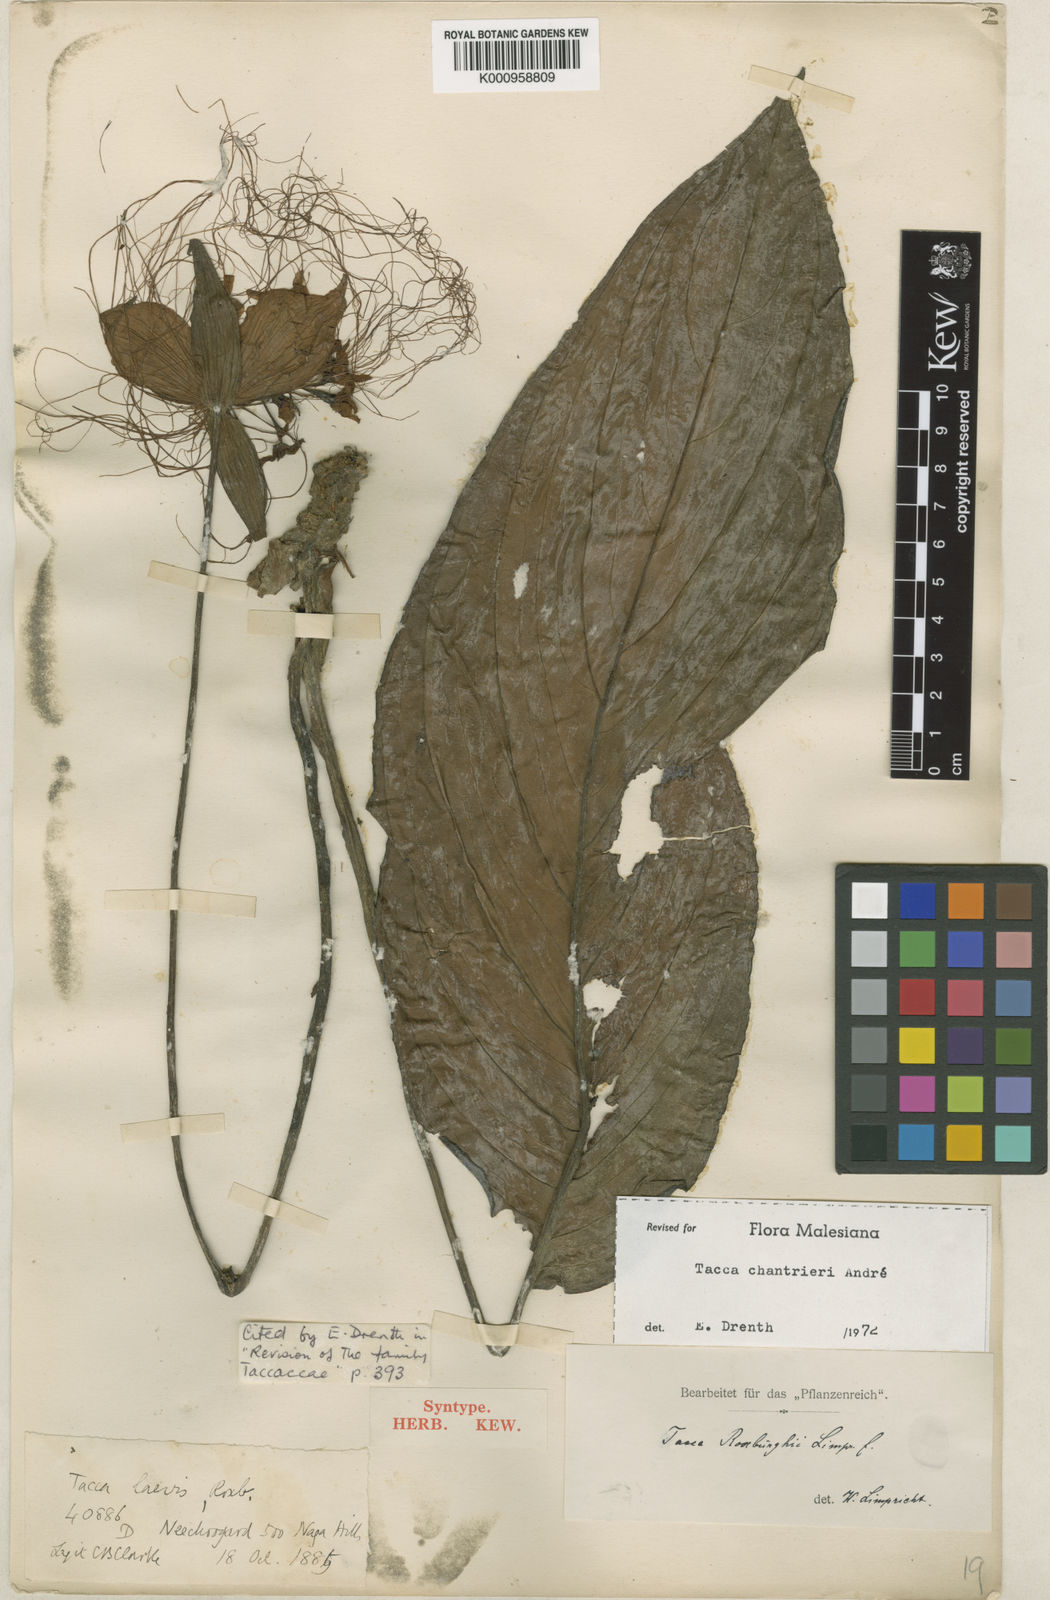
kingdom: Plantae
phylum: Tracheophyta
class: Liliopsida
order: Dioscoreales
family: Dioscoreaceae
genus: Tacca
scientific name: Tacca
